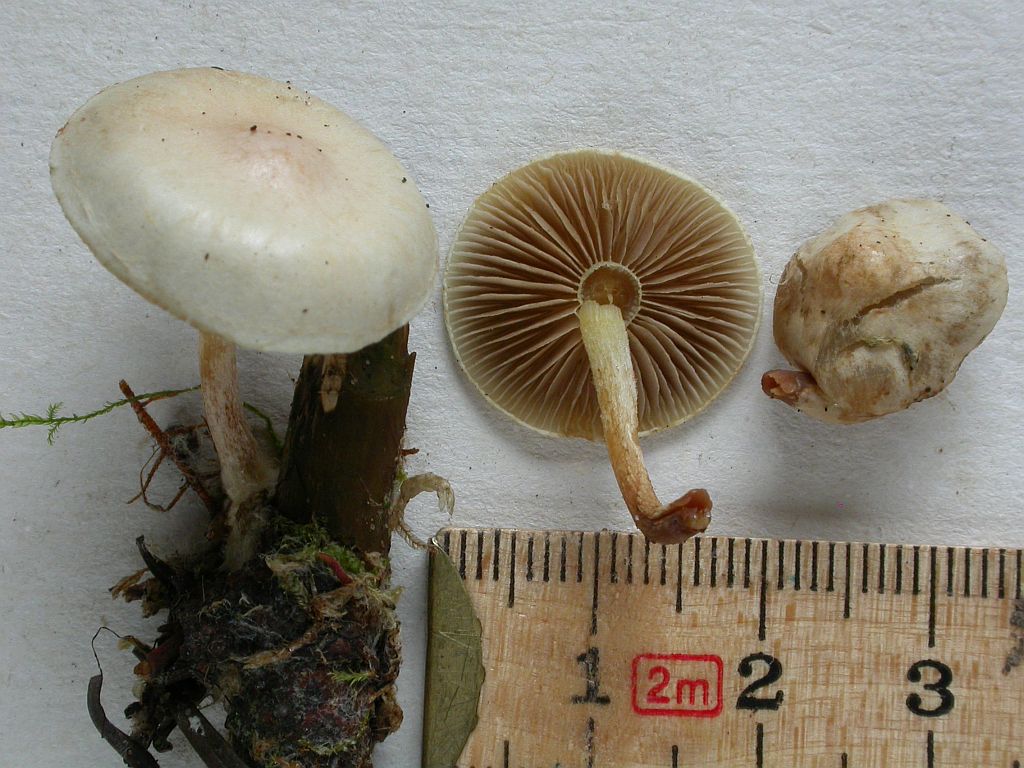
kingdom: Fungi
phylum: Basidiomycota
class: Agaricomycetes
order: Agaricales
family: Strophariaceae
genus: Pholiota
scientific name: Pholiota scamba
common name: dværg-skælhat
